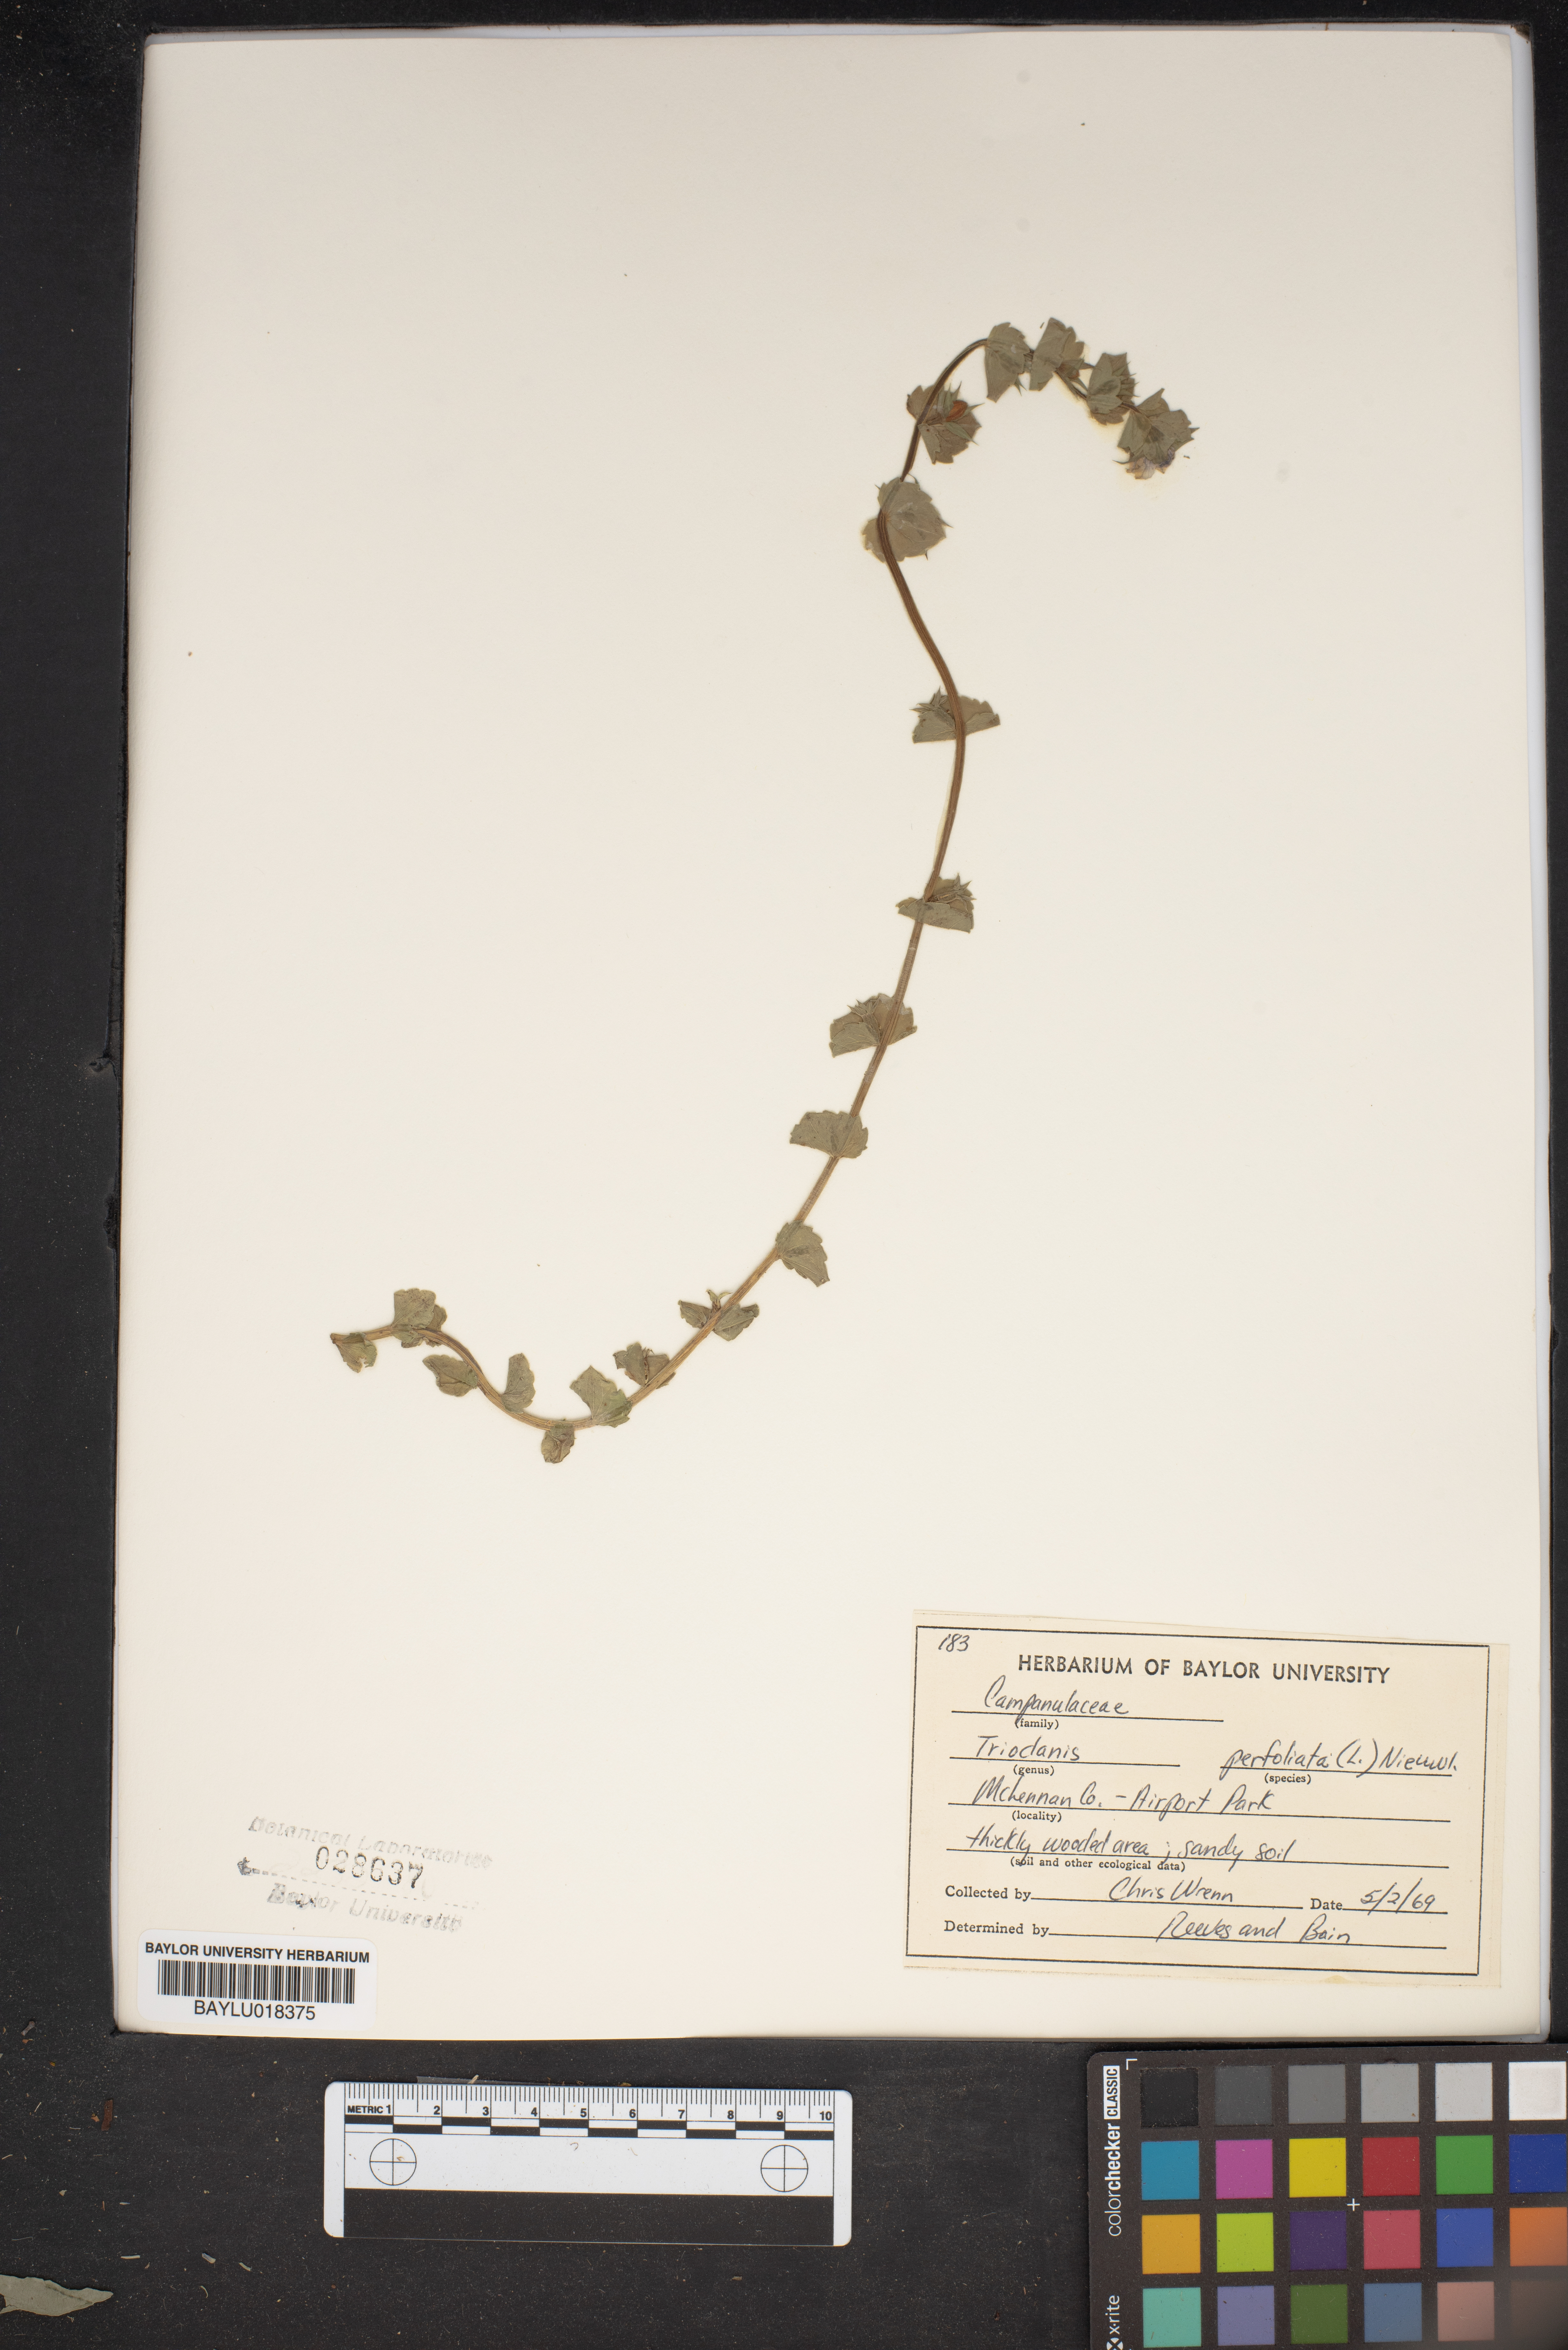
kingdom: Plantae
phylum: Tracheophyta
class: Magnoliopsida
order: Asterales
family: Campanulaceae
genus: Triodanis
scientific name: Triodanis perfoliata
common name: Clasping venus' looking-glass
